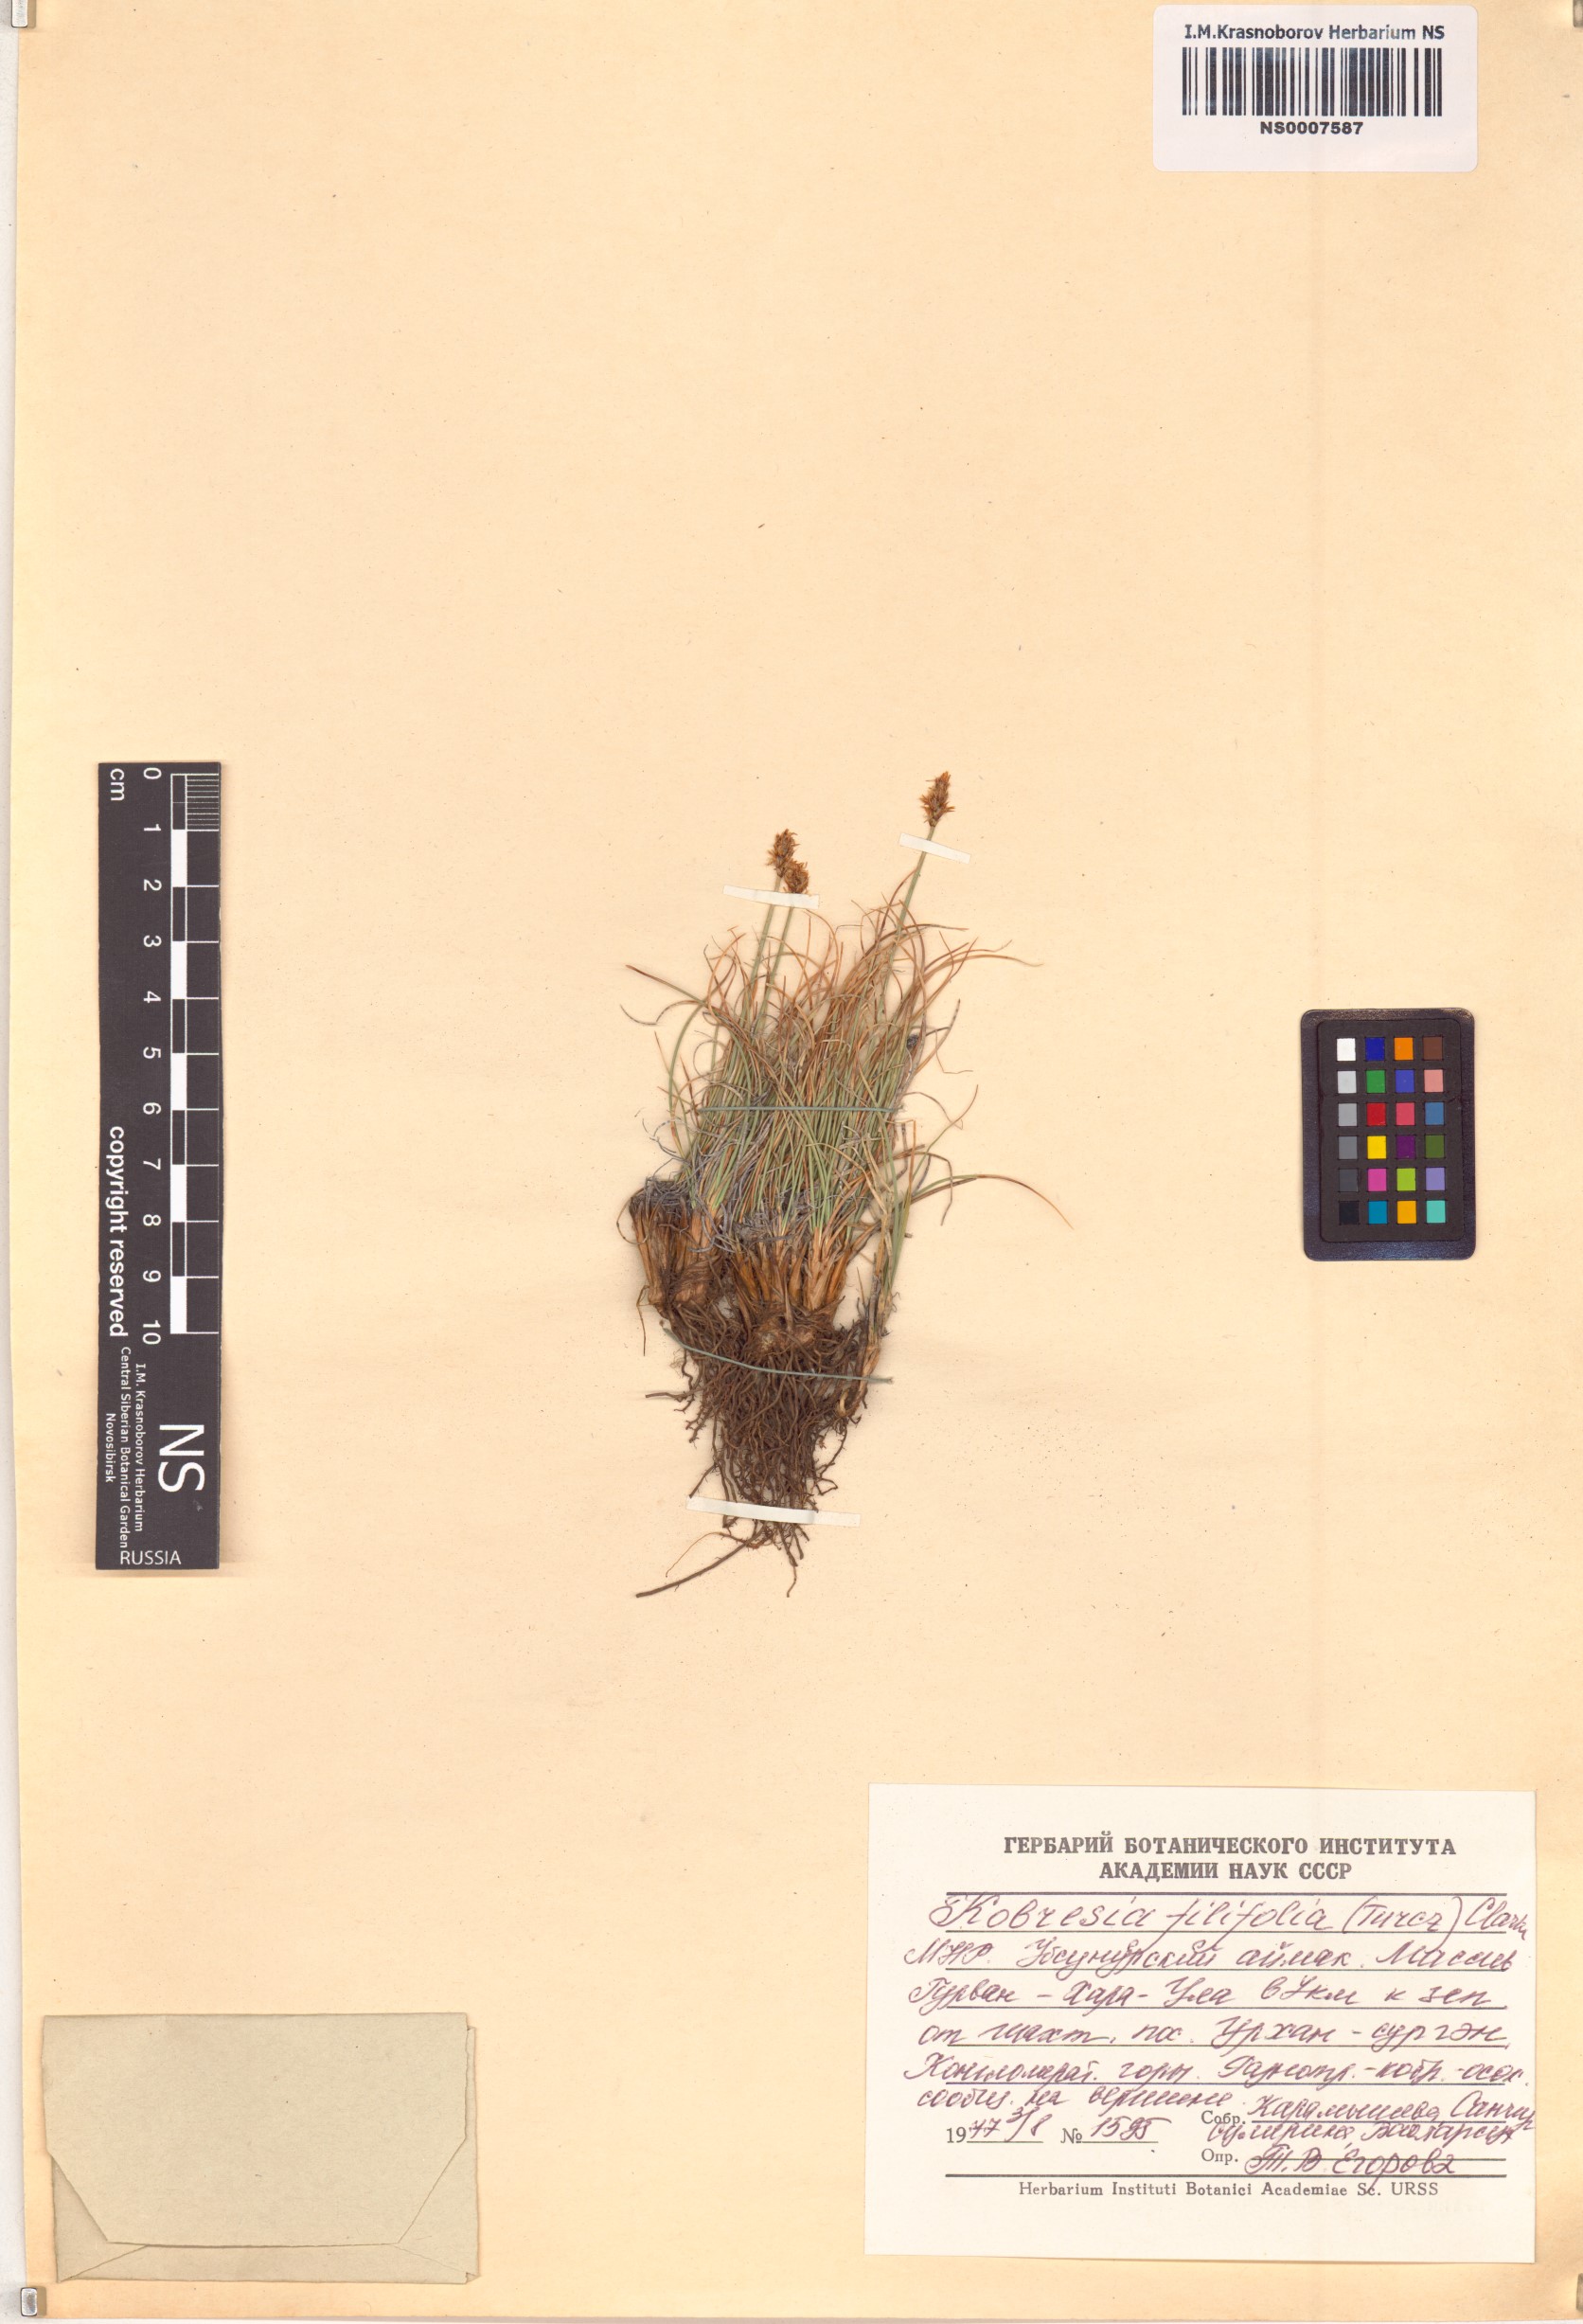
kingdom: Plantae
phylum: Tracheophyta
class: Liliopsida
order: Poales
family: Cyperaceae
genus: Carex
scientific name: Carex macroprophylla
